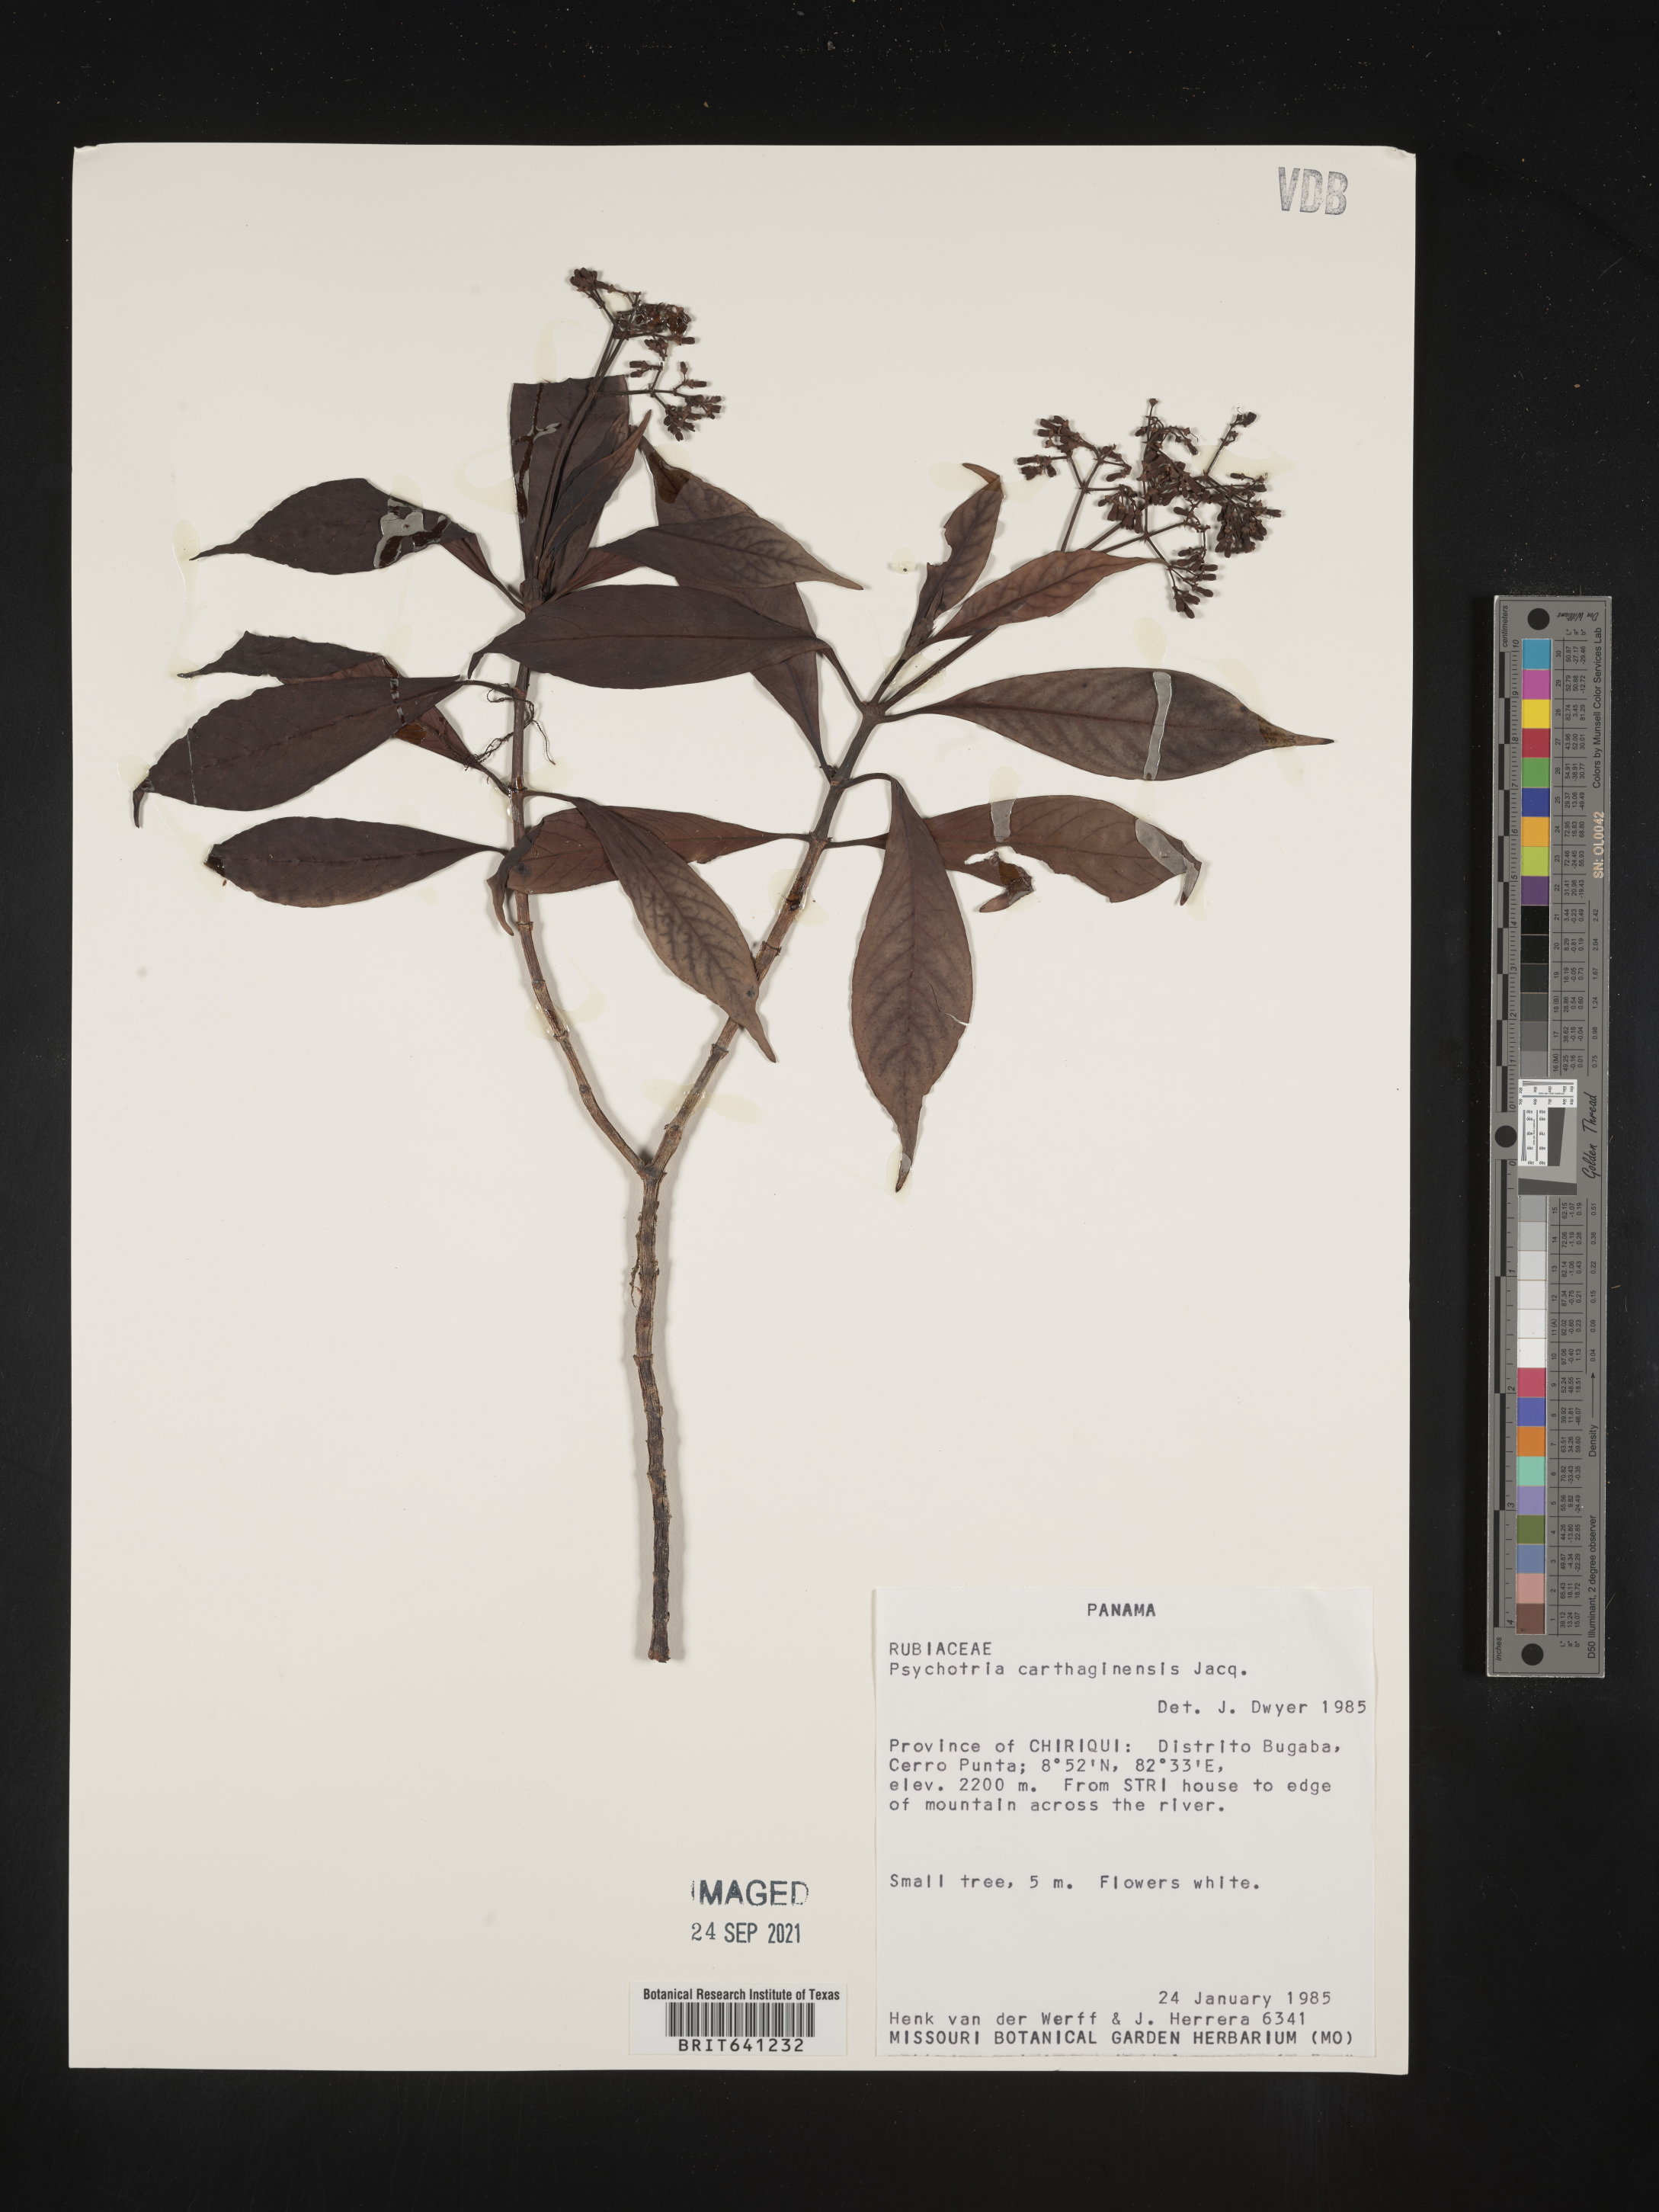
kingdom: Plantae
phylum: Tracheophyta
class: Magnoliopsida
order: Gentianales
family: Rubiaceae
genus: Psychotria
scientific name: Psychotria
